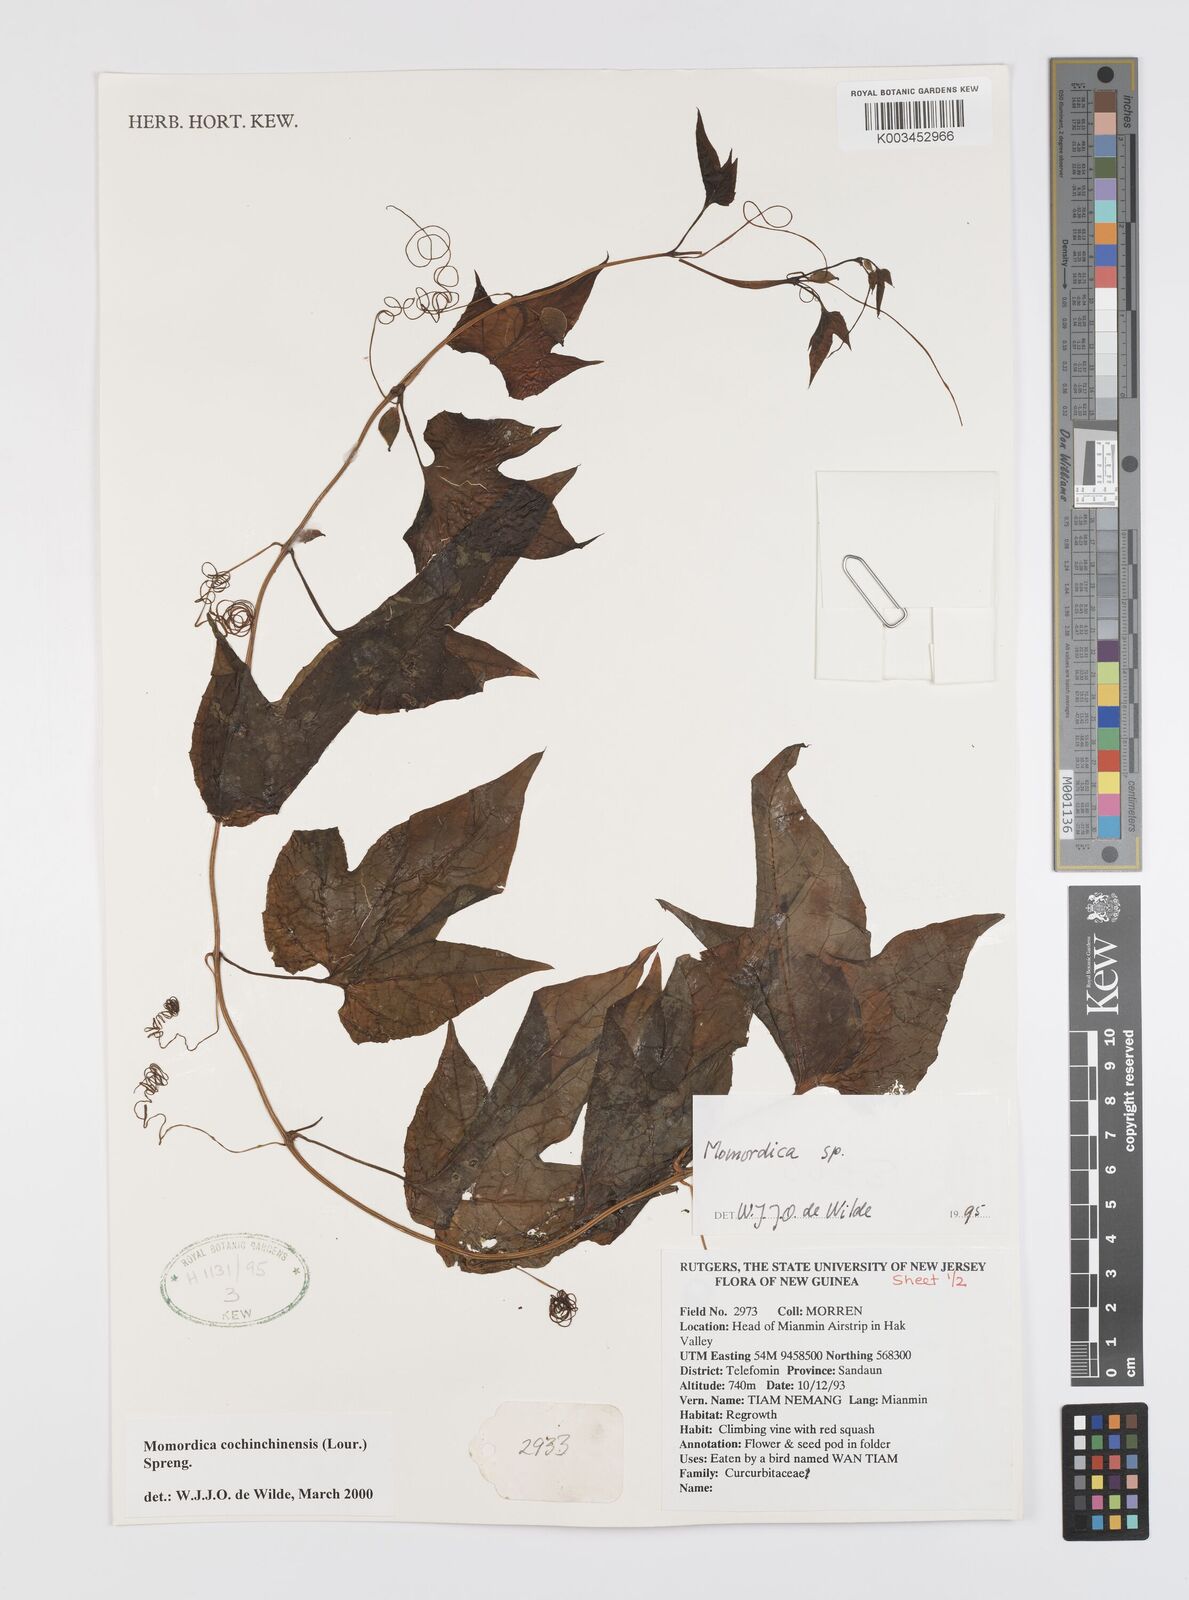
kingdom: Plantae
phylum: Tracheophyta
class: Magnoliopsida
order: Cucurbitales
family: Cucurbitaceae
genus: Momordica
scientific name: Momordica cochinchinensis
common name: Chinese bitter-cucumber
